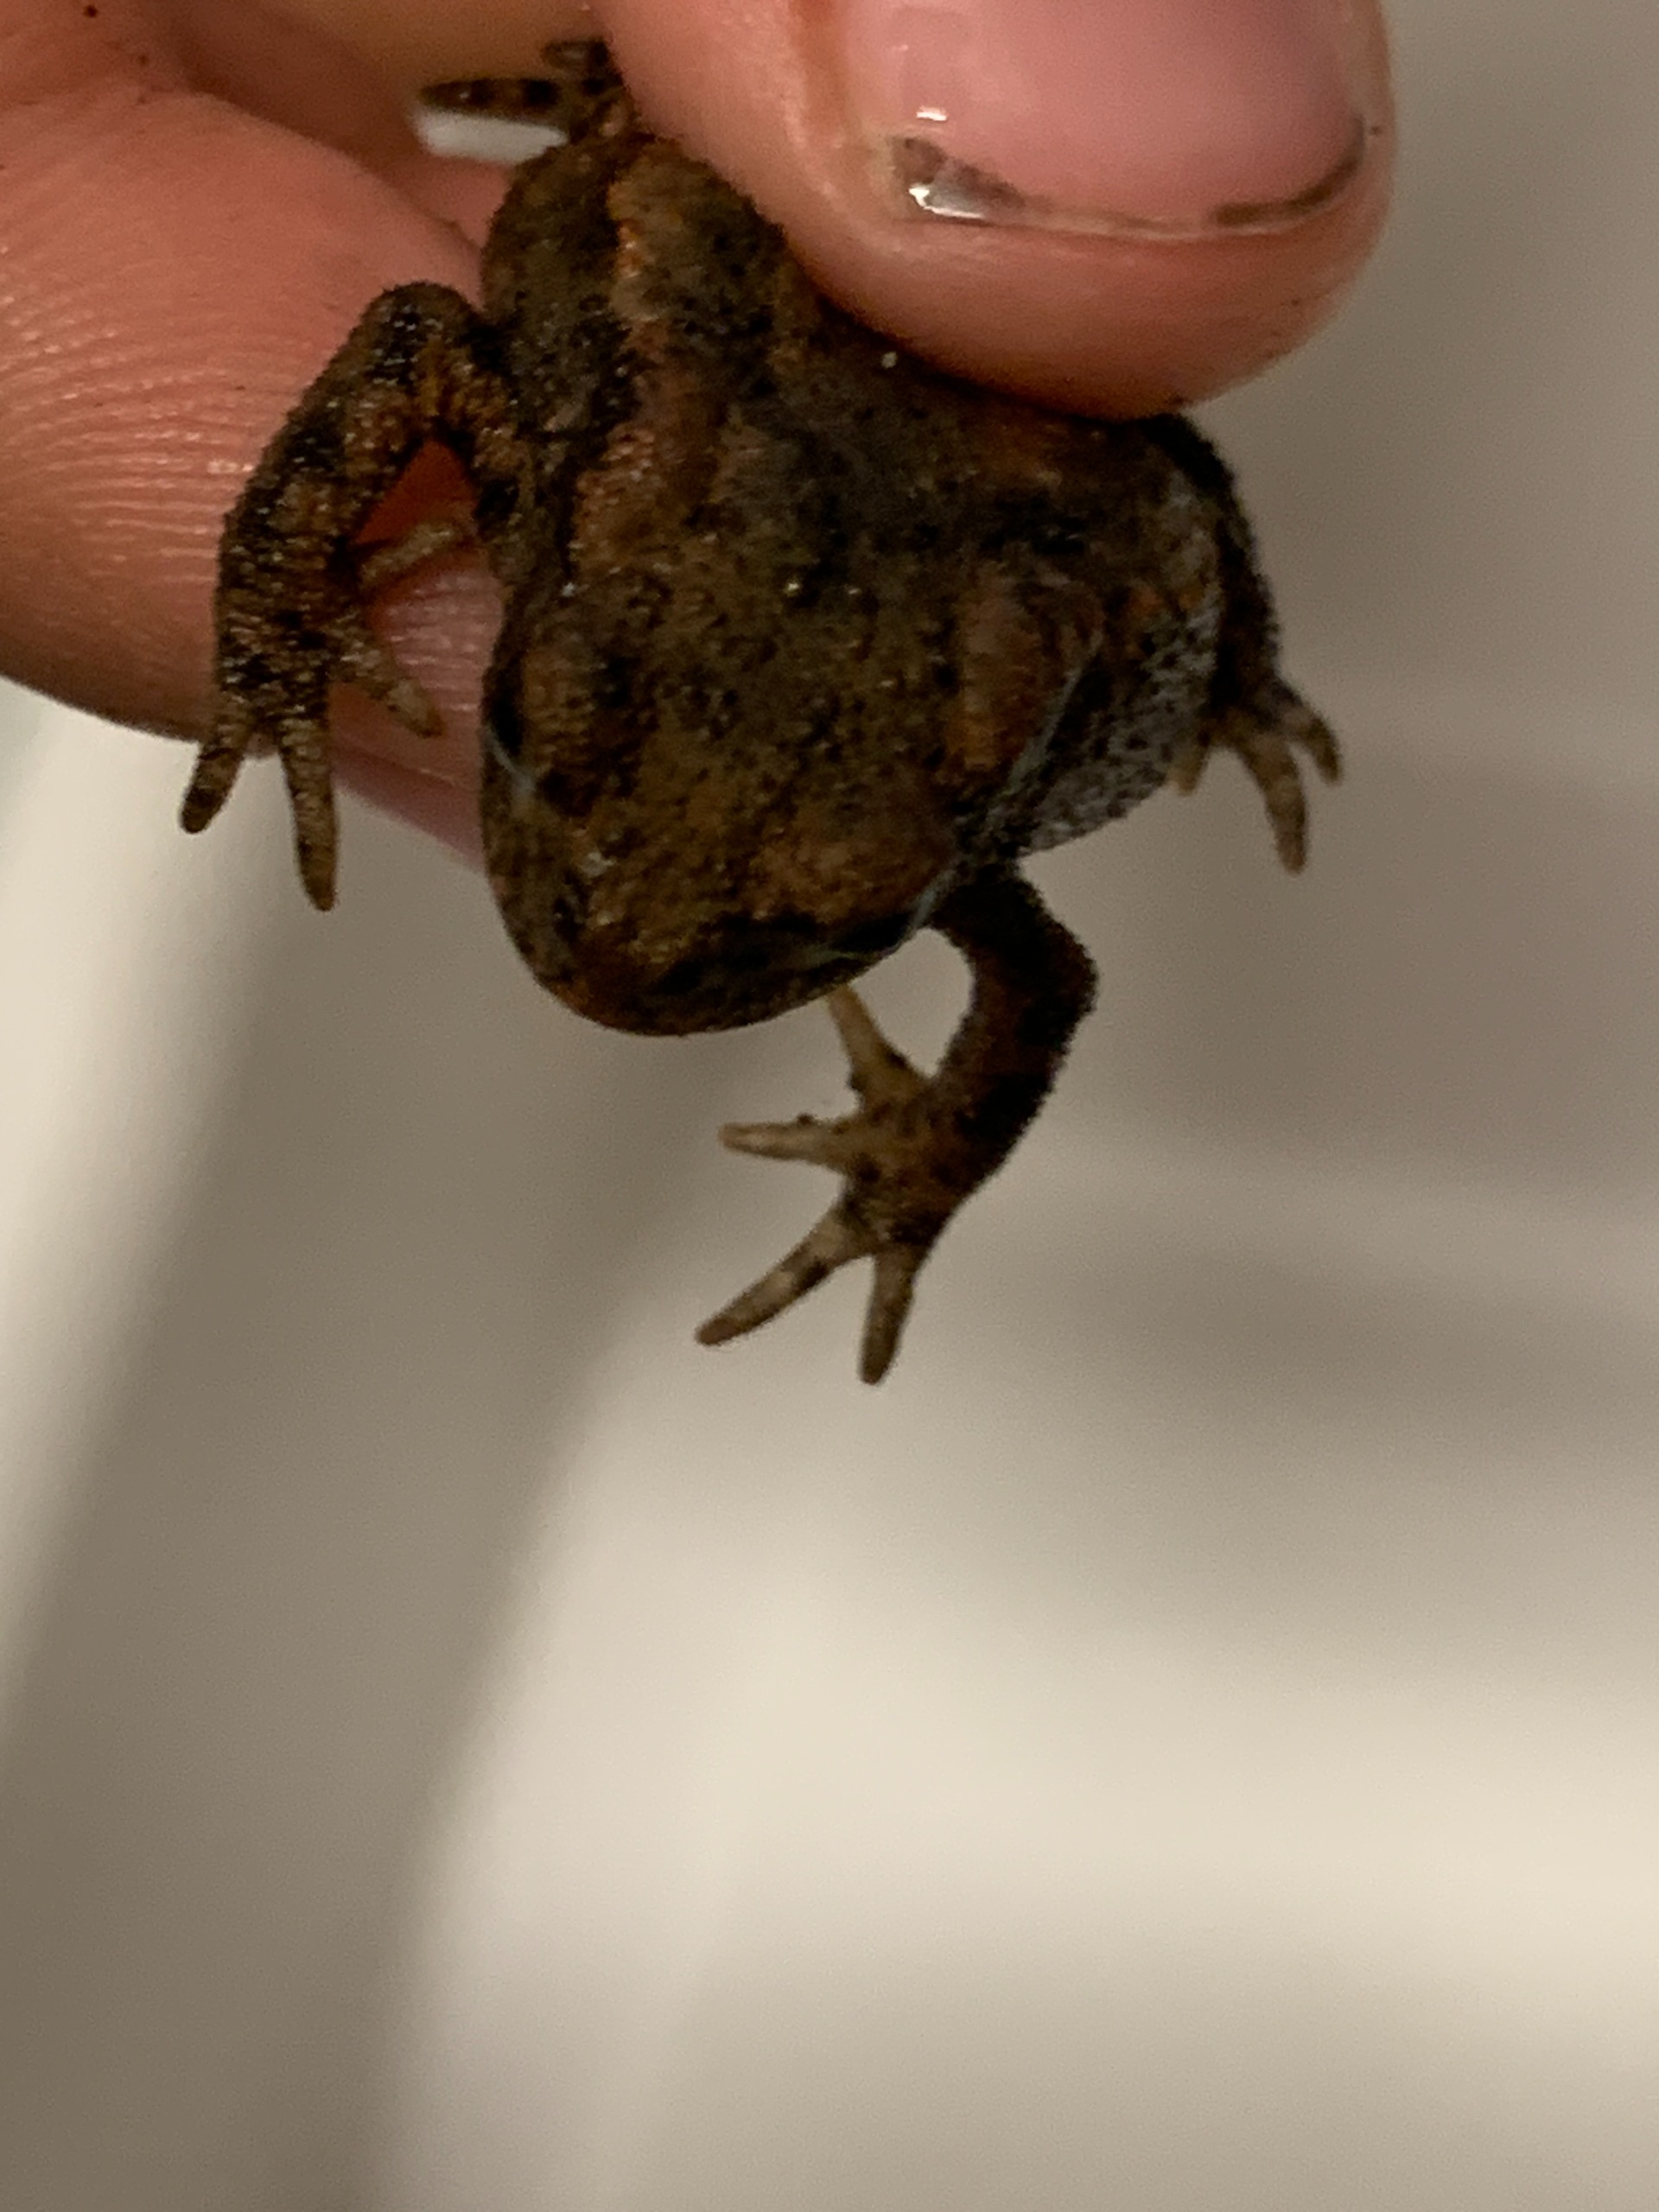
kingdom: Animalia
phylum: Chordata
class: Amphibia
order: Anura
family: Bufonidae
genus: Bufo
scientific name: Bufo bufo
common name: Skrubtudse
